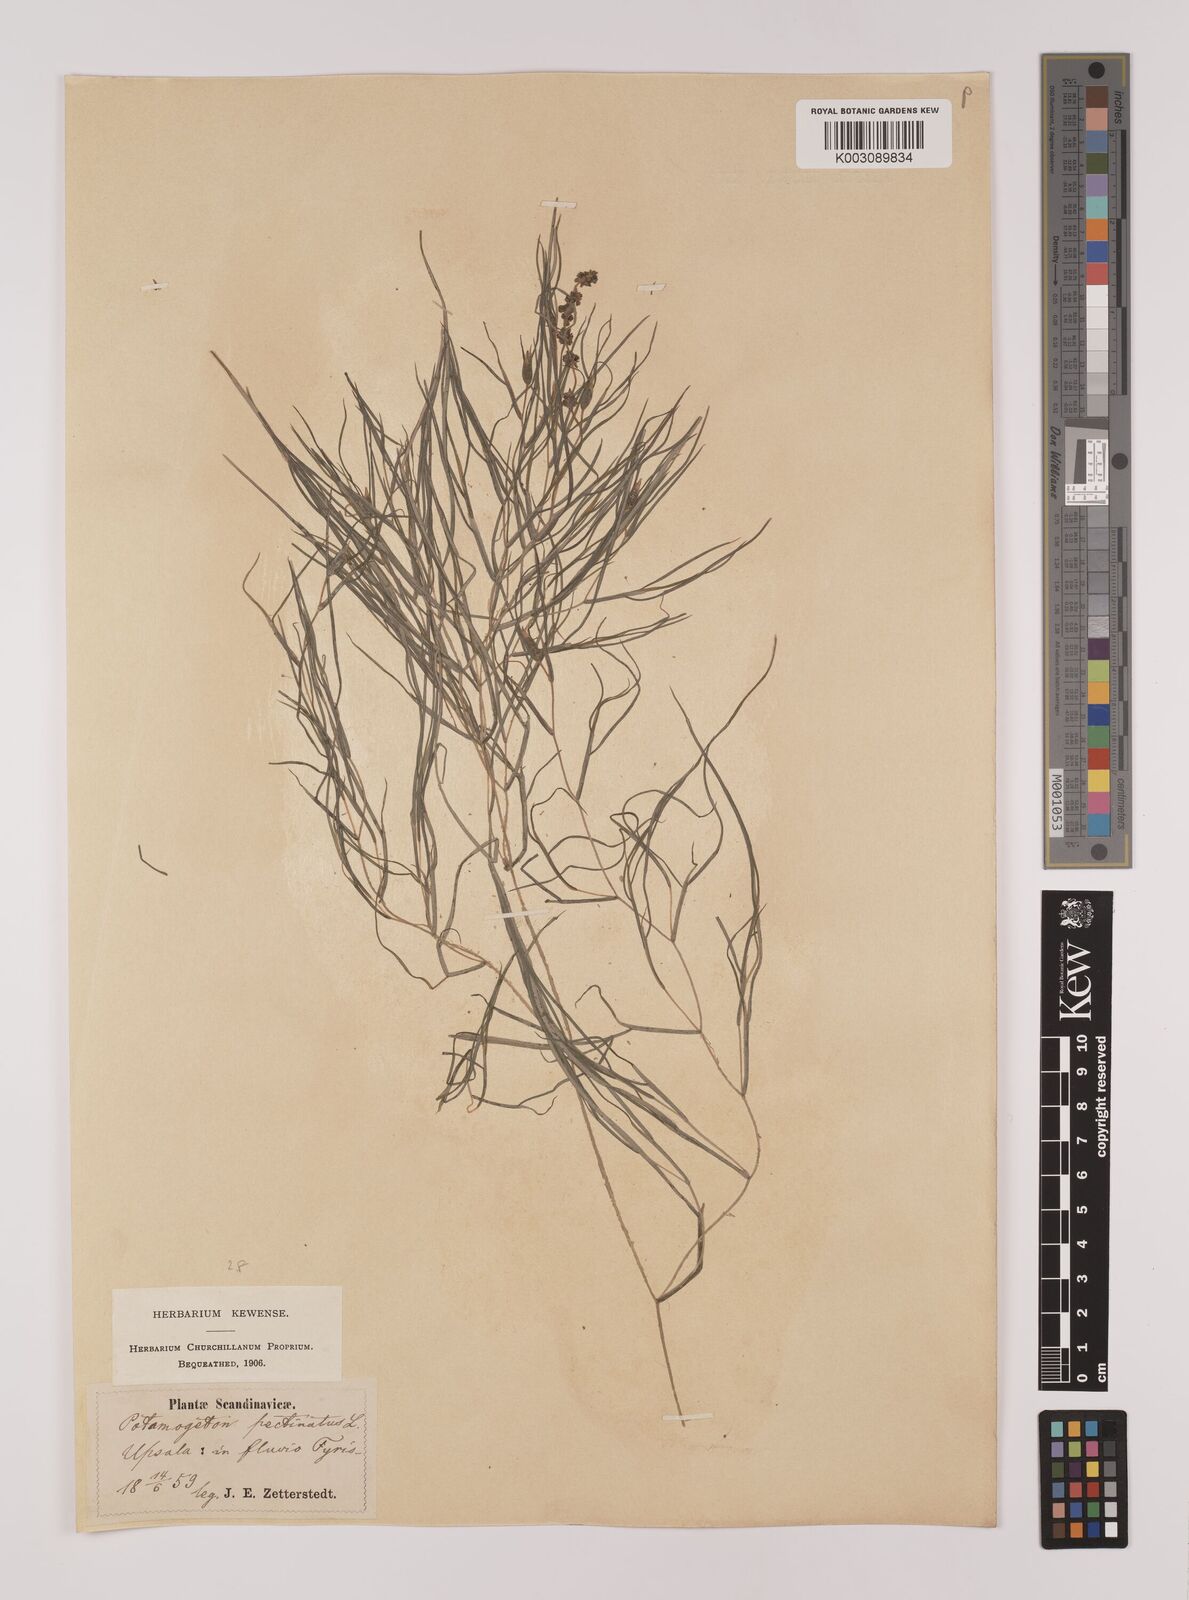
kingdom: Plantae
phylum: Tracheophyta
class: Liliopsida
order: Alismatales
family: Potamogetonaceae
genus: Stuckenia
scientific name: Stuckenia pectinata
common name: Sago pondweed
